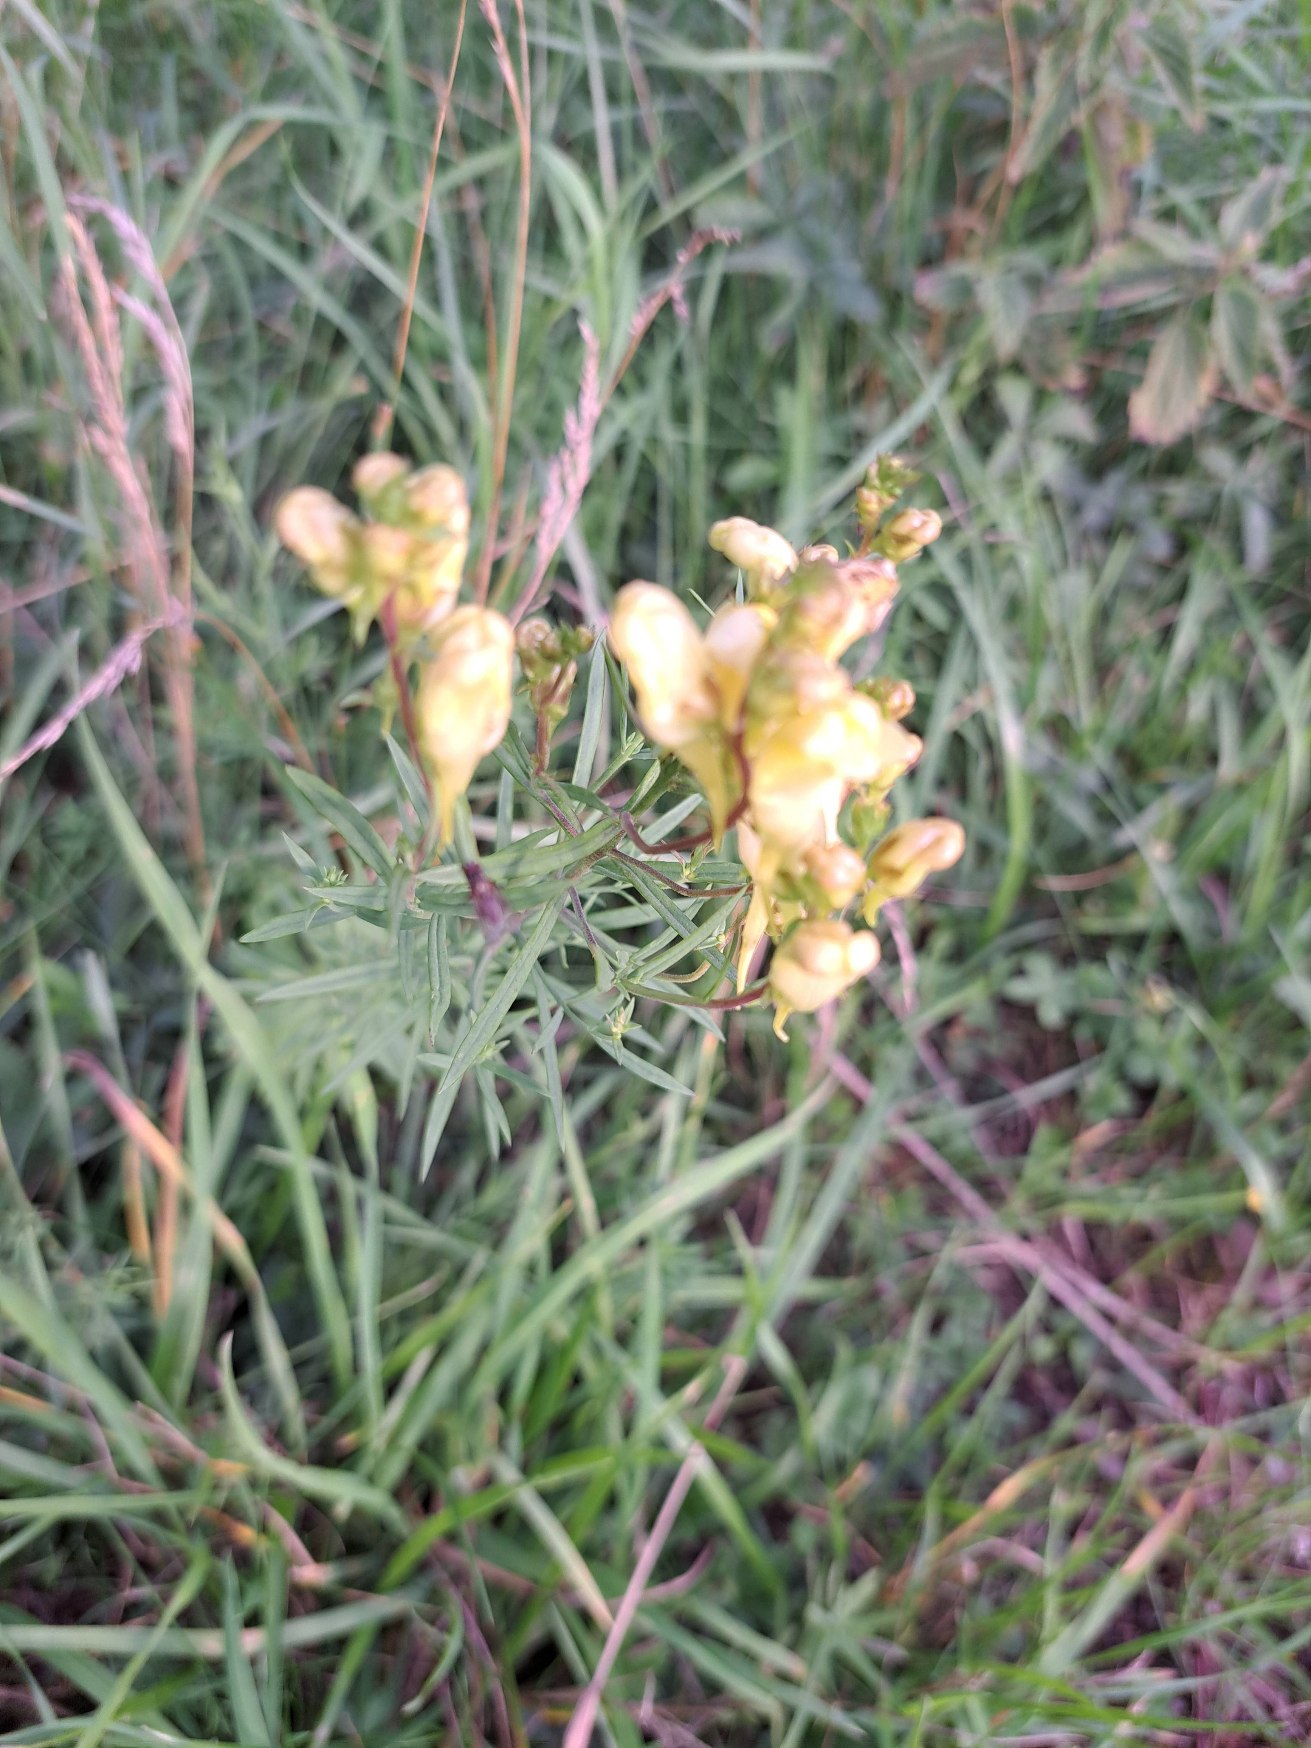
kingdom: Plantae
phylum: Tracheophyta
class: Magnoliopsida
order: Lamiales
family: Plantaginaceae
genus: Linaria
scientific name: Linaria vulgaris
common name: Almindelig torskemund
